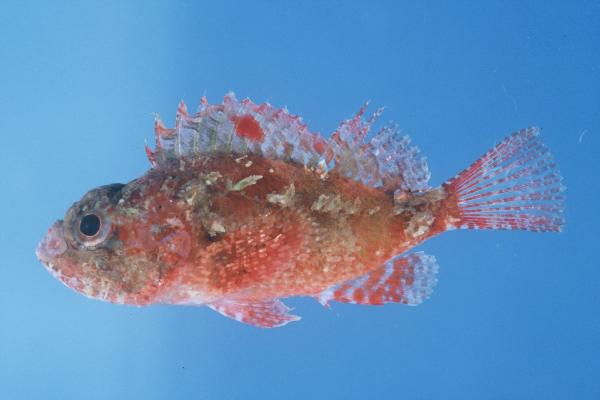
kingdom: Animalia
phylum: Chordata
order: Scorpaeniformes
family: Scorpaenidae
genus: Scorpaena
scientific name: Scorpaena scrofa
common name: Red scorpionfish
